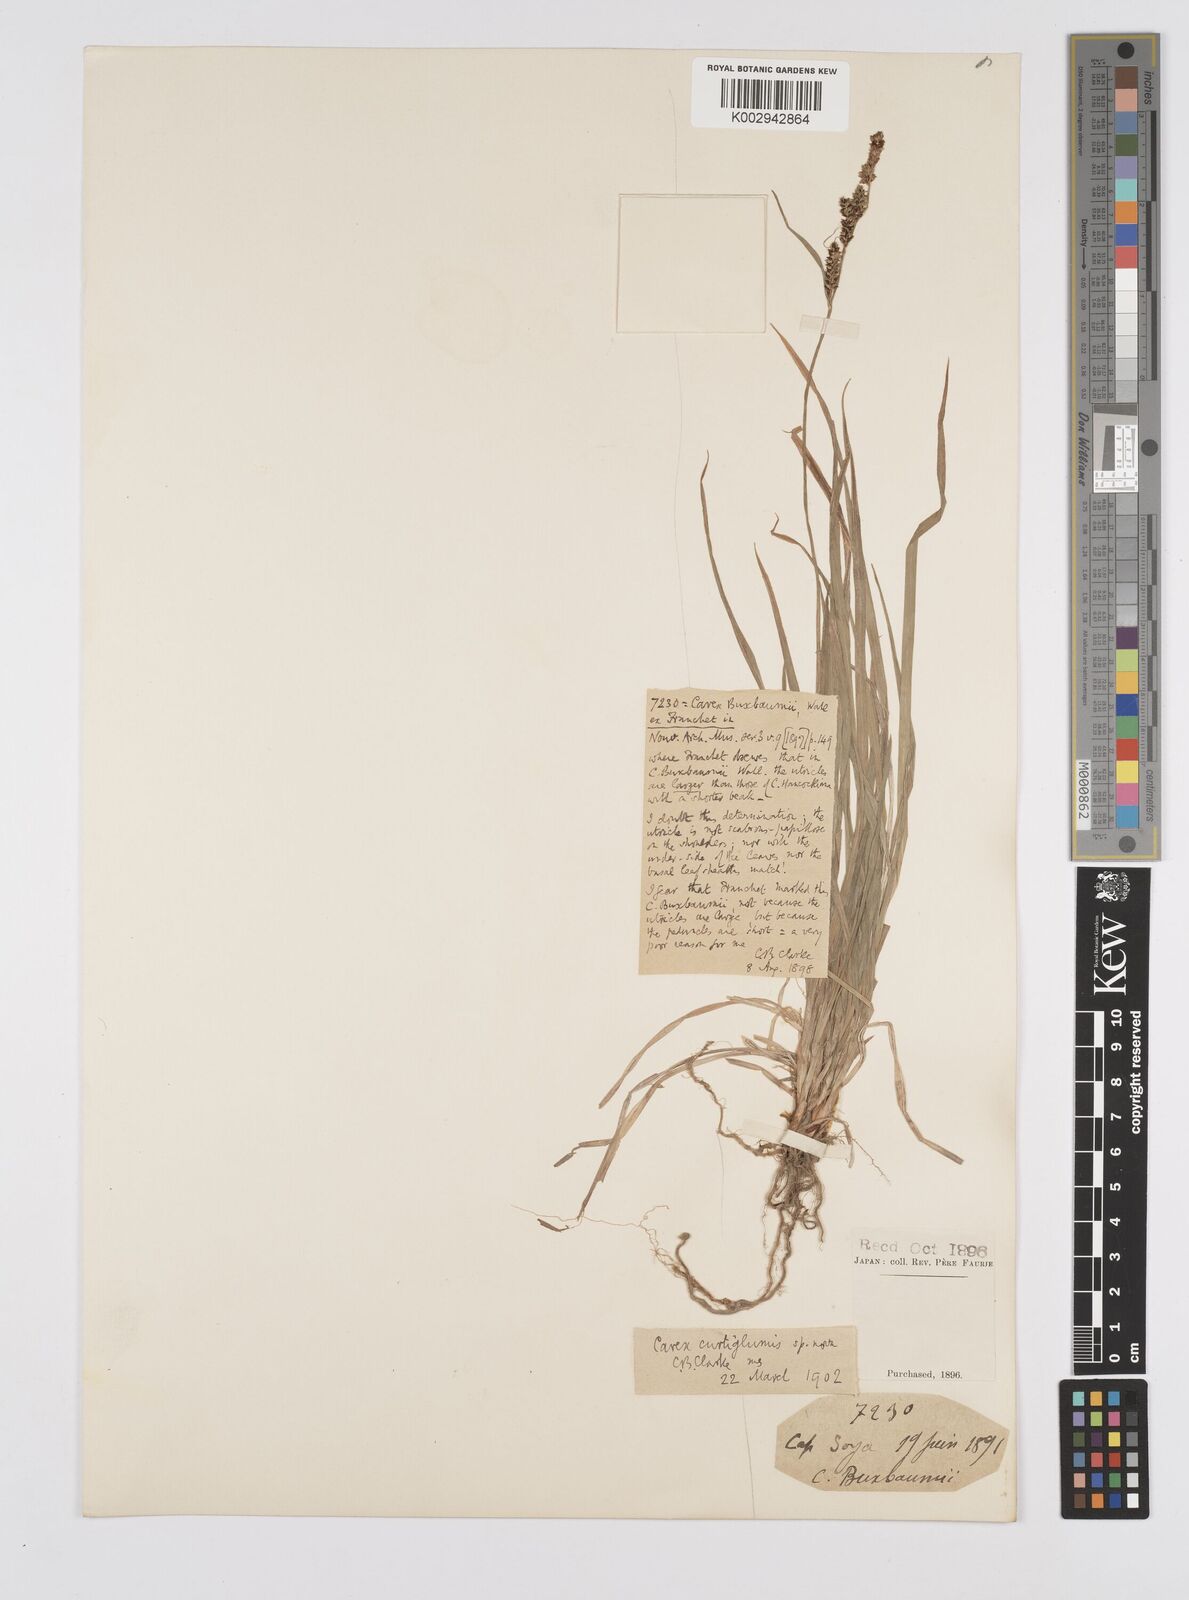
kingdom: Plantae
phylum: Tracheophyta
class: Liliopsida
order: Poales
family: Cyperaceae
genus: Carex
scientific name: Carex augustinowiczii
